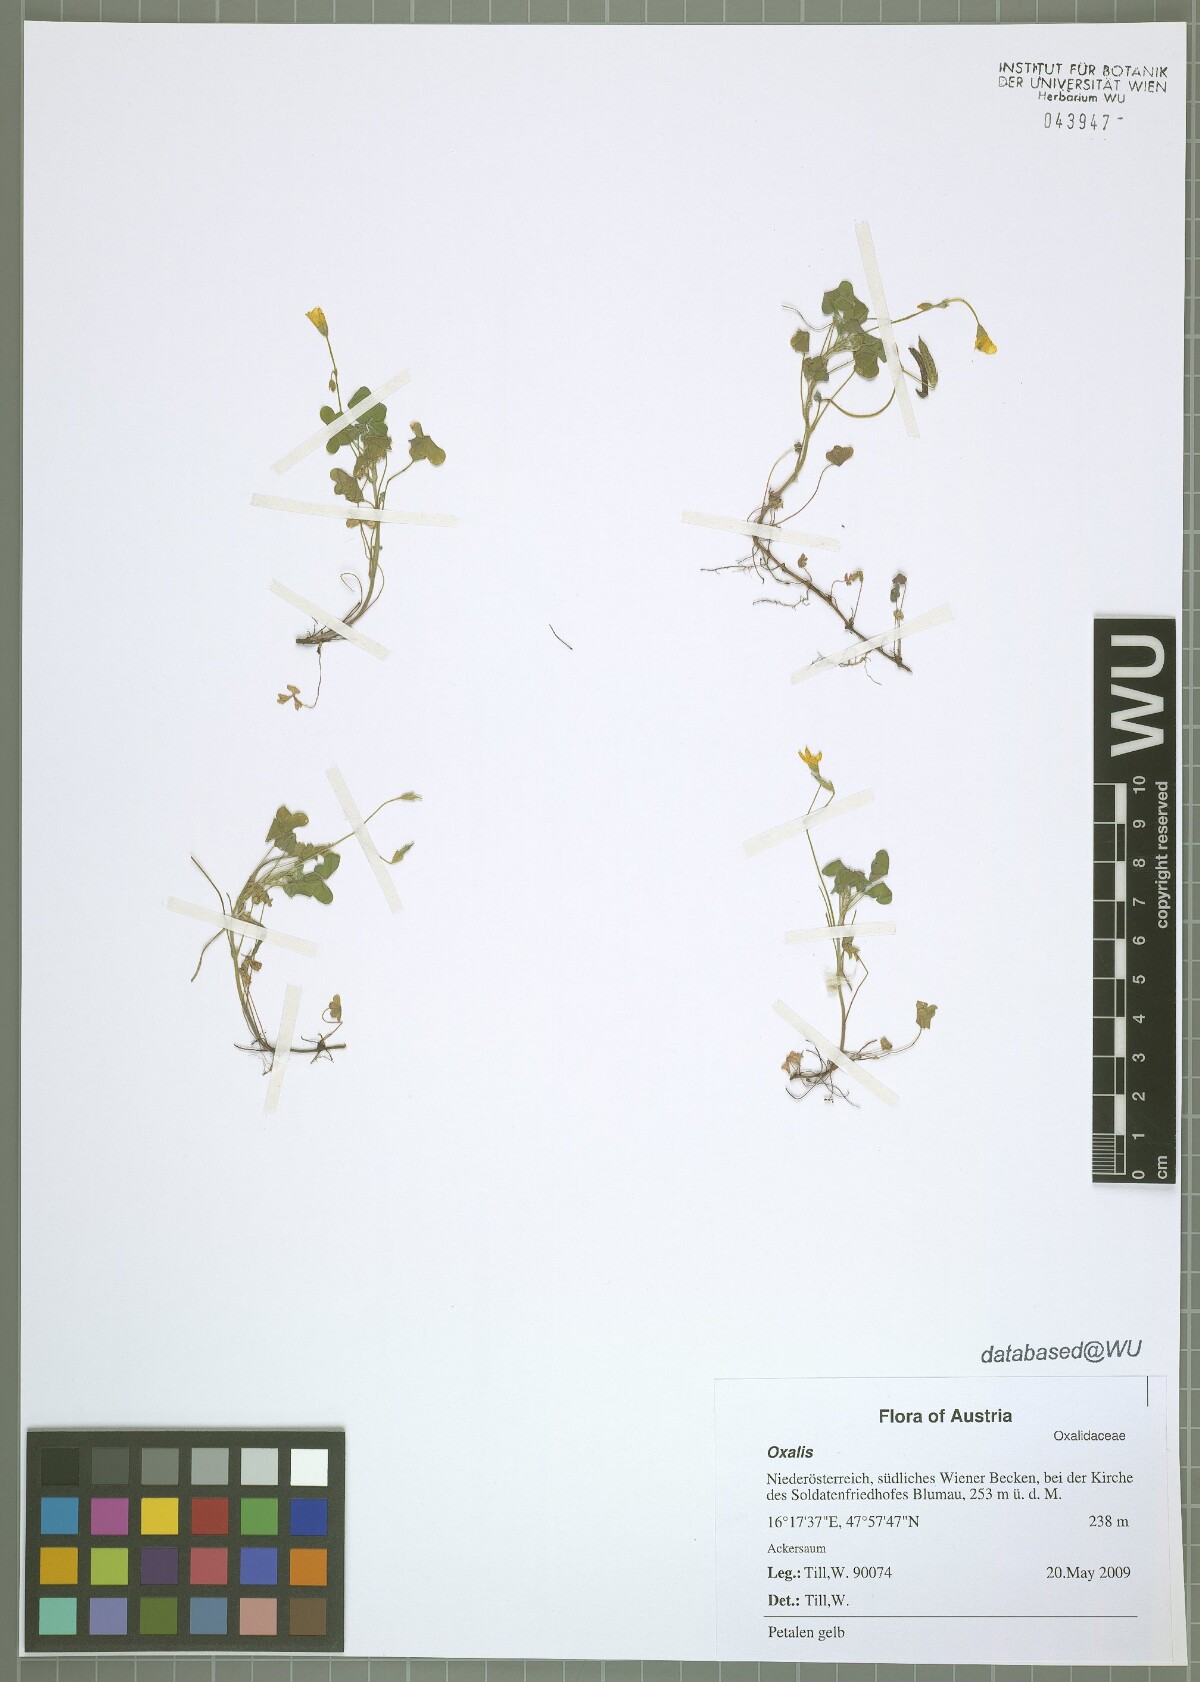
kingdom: Plantae
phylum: Tracheophyta
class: Magnoliopsida
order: Oxalidales
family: Oxalidaceae
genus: Oxalis
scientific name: Oxalis stricta
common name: Upright yellow-sorrel
